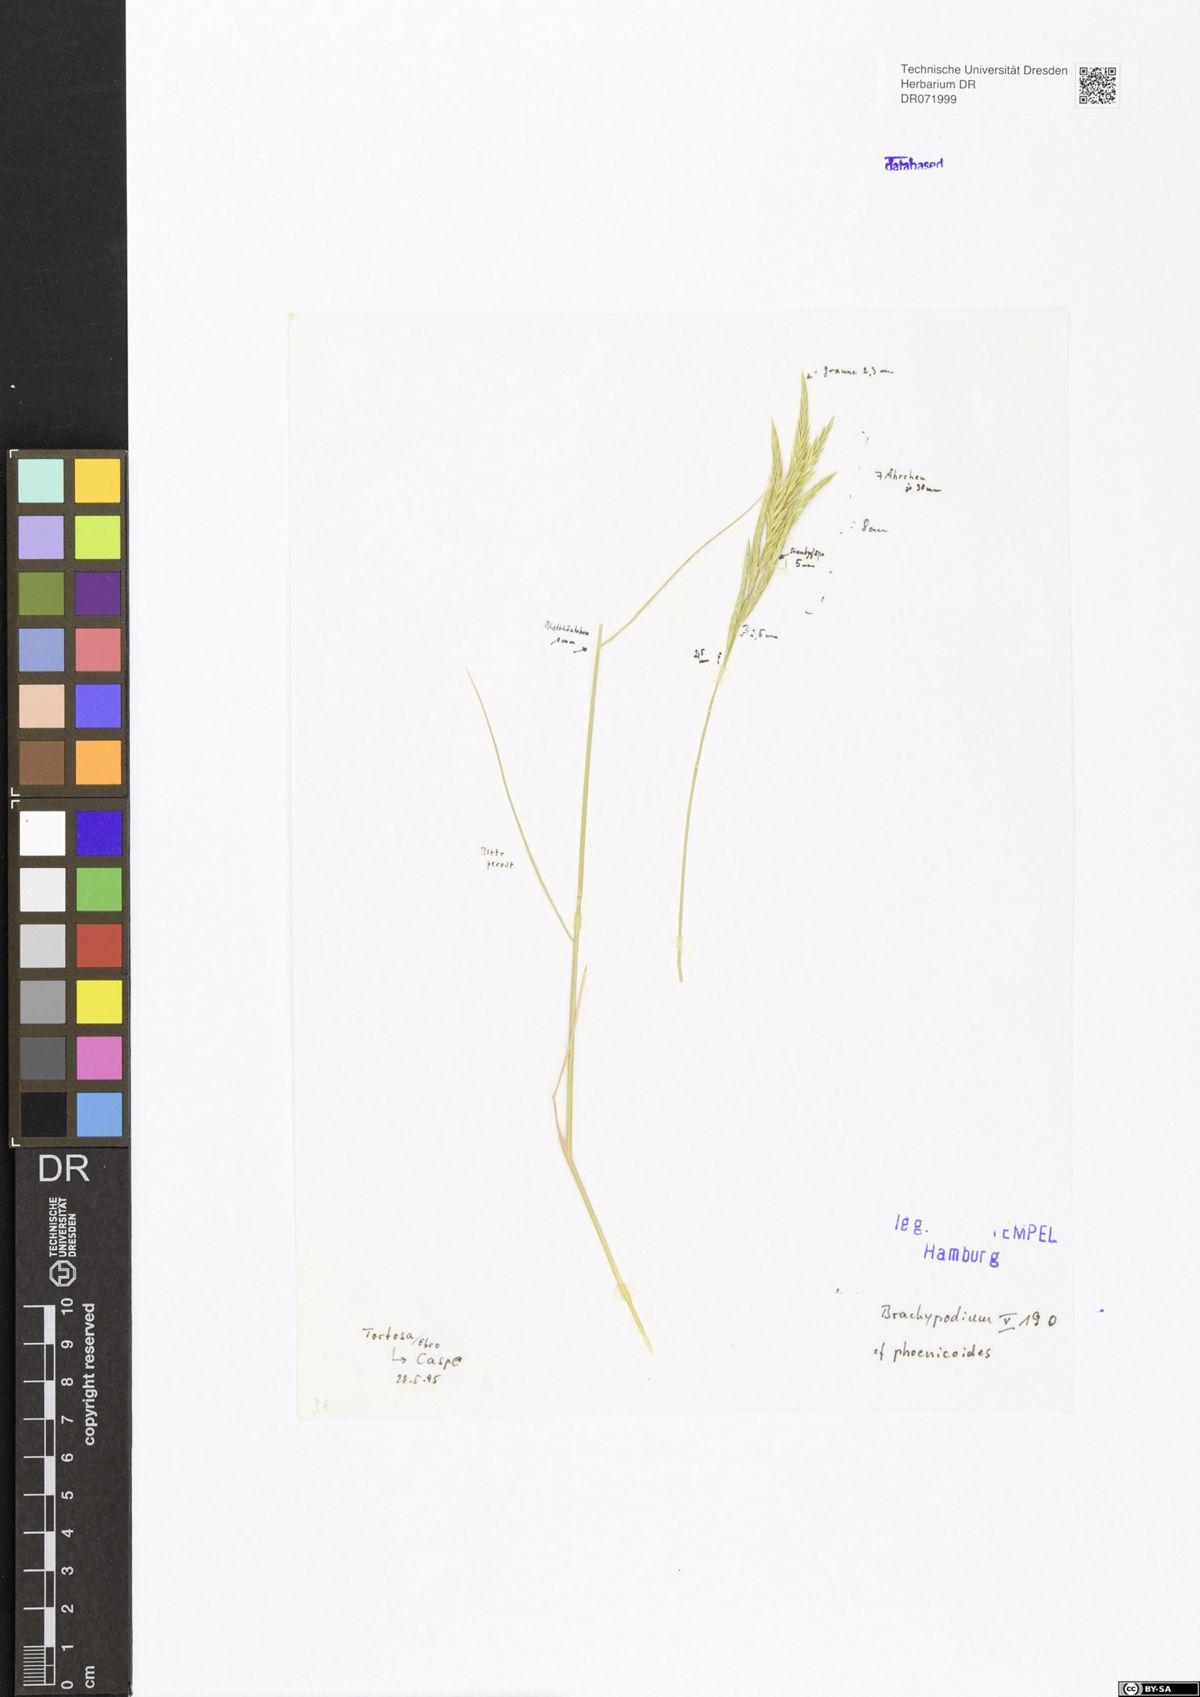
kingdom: Plantae
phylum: Tracheophyta
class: Liliopsida
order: Poales
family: Poaceae
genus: Brachypodium
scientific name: Brachypodium phoenicoides
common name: Thinleaf false brome
